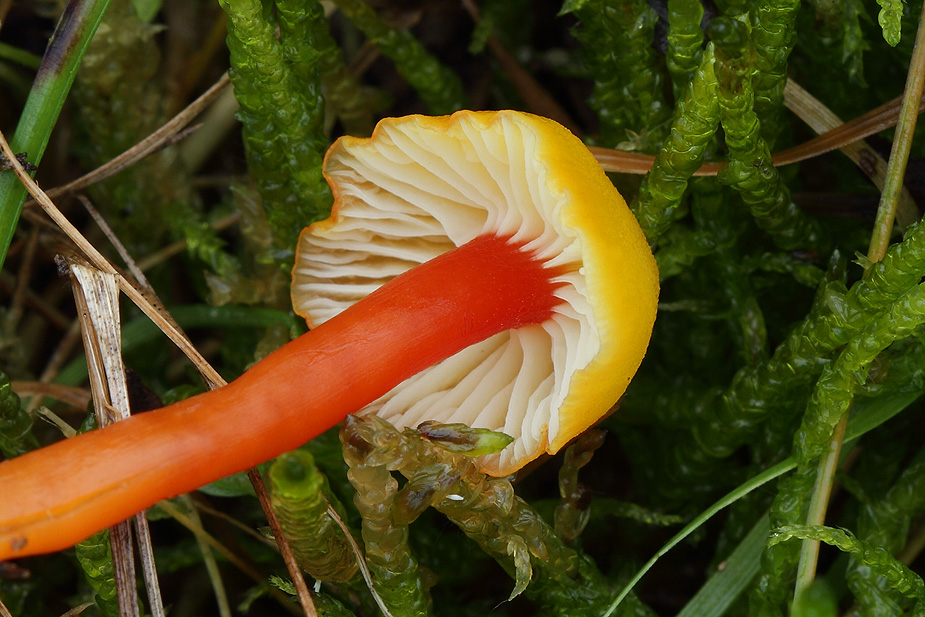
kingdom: Fungi
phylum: Basidiomycota
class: Agaricomycetes
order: Agaricales
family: Hygrophoraceae
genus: Hygrocybe
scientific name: Hygrocybe insipida
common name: liden vokshat
